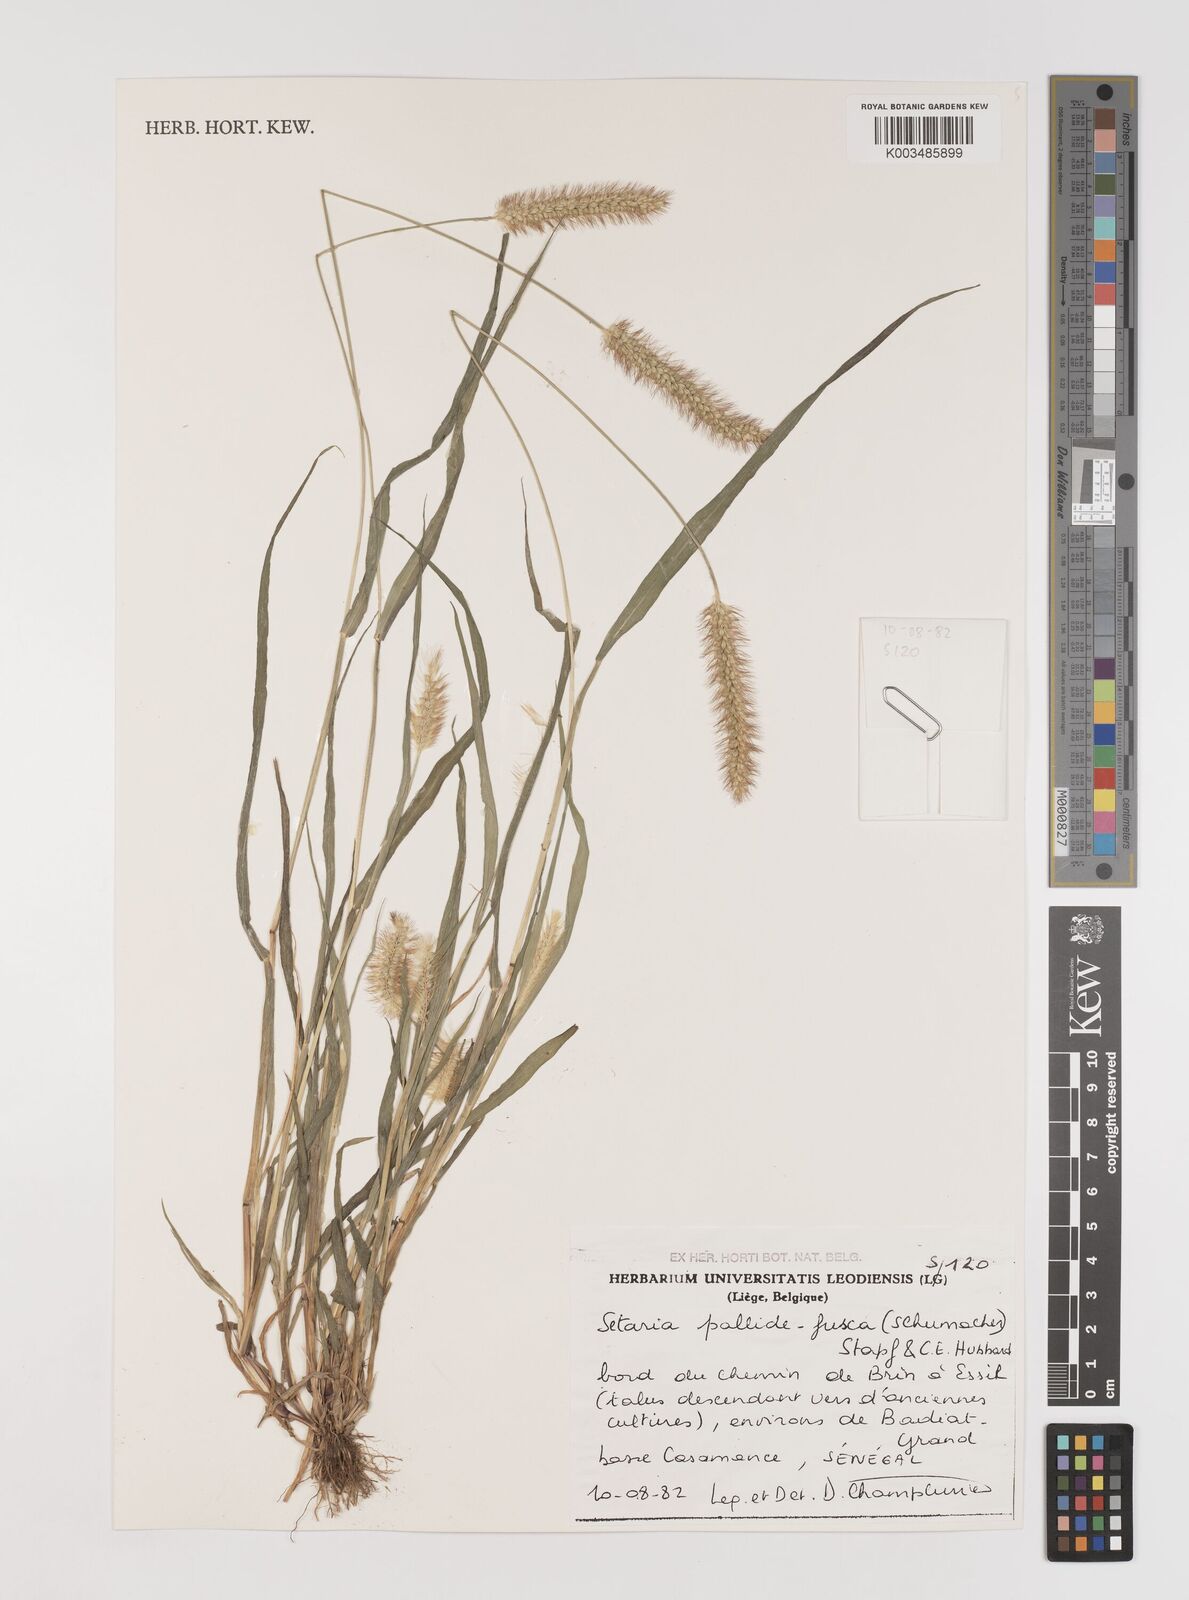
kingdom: Plantae
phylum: Tracheophyta
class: Liliopsida
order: Poales
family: Poaceae
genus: Setaria
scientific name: Setaria pumila
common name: Yellow bristle-grass
